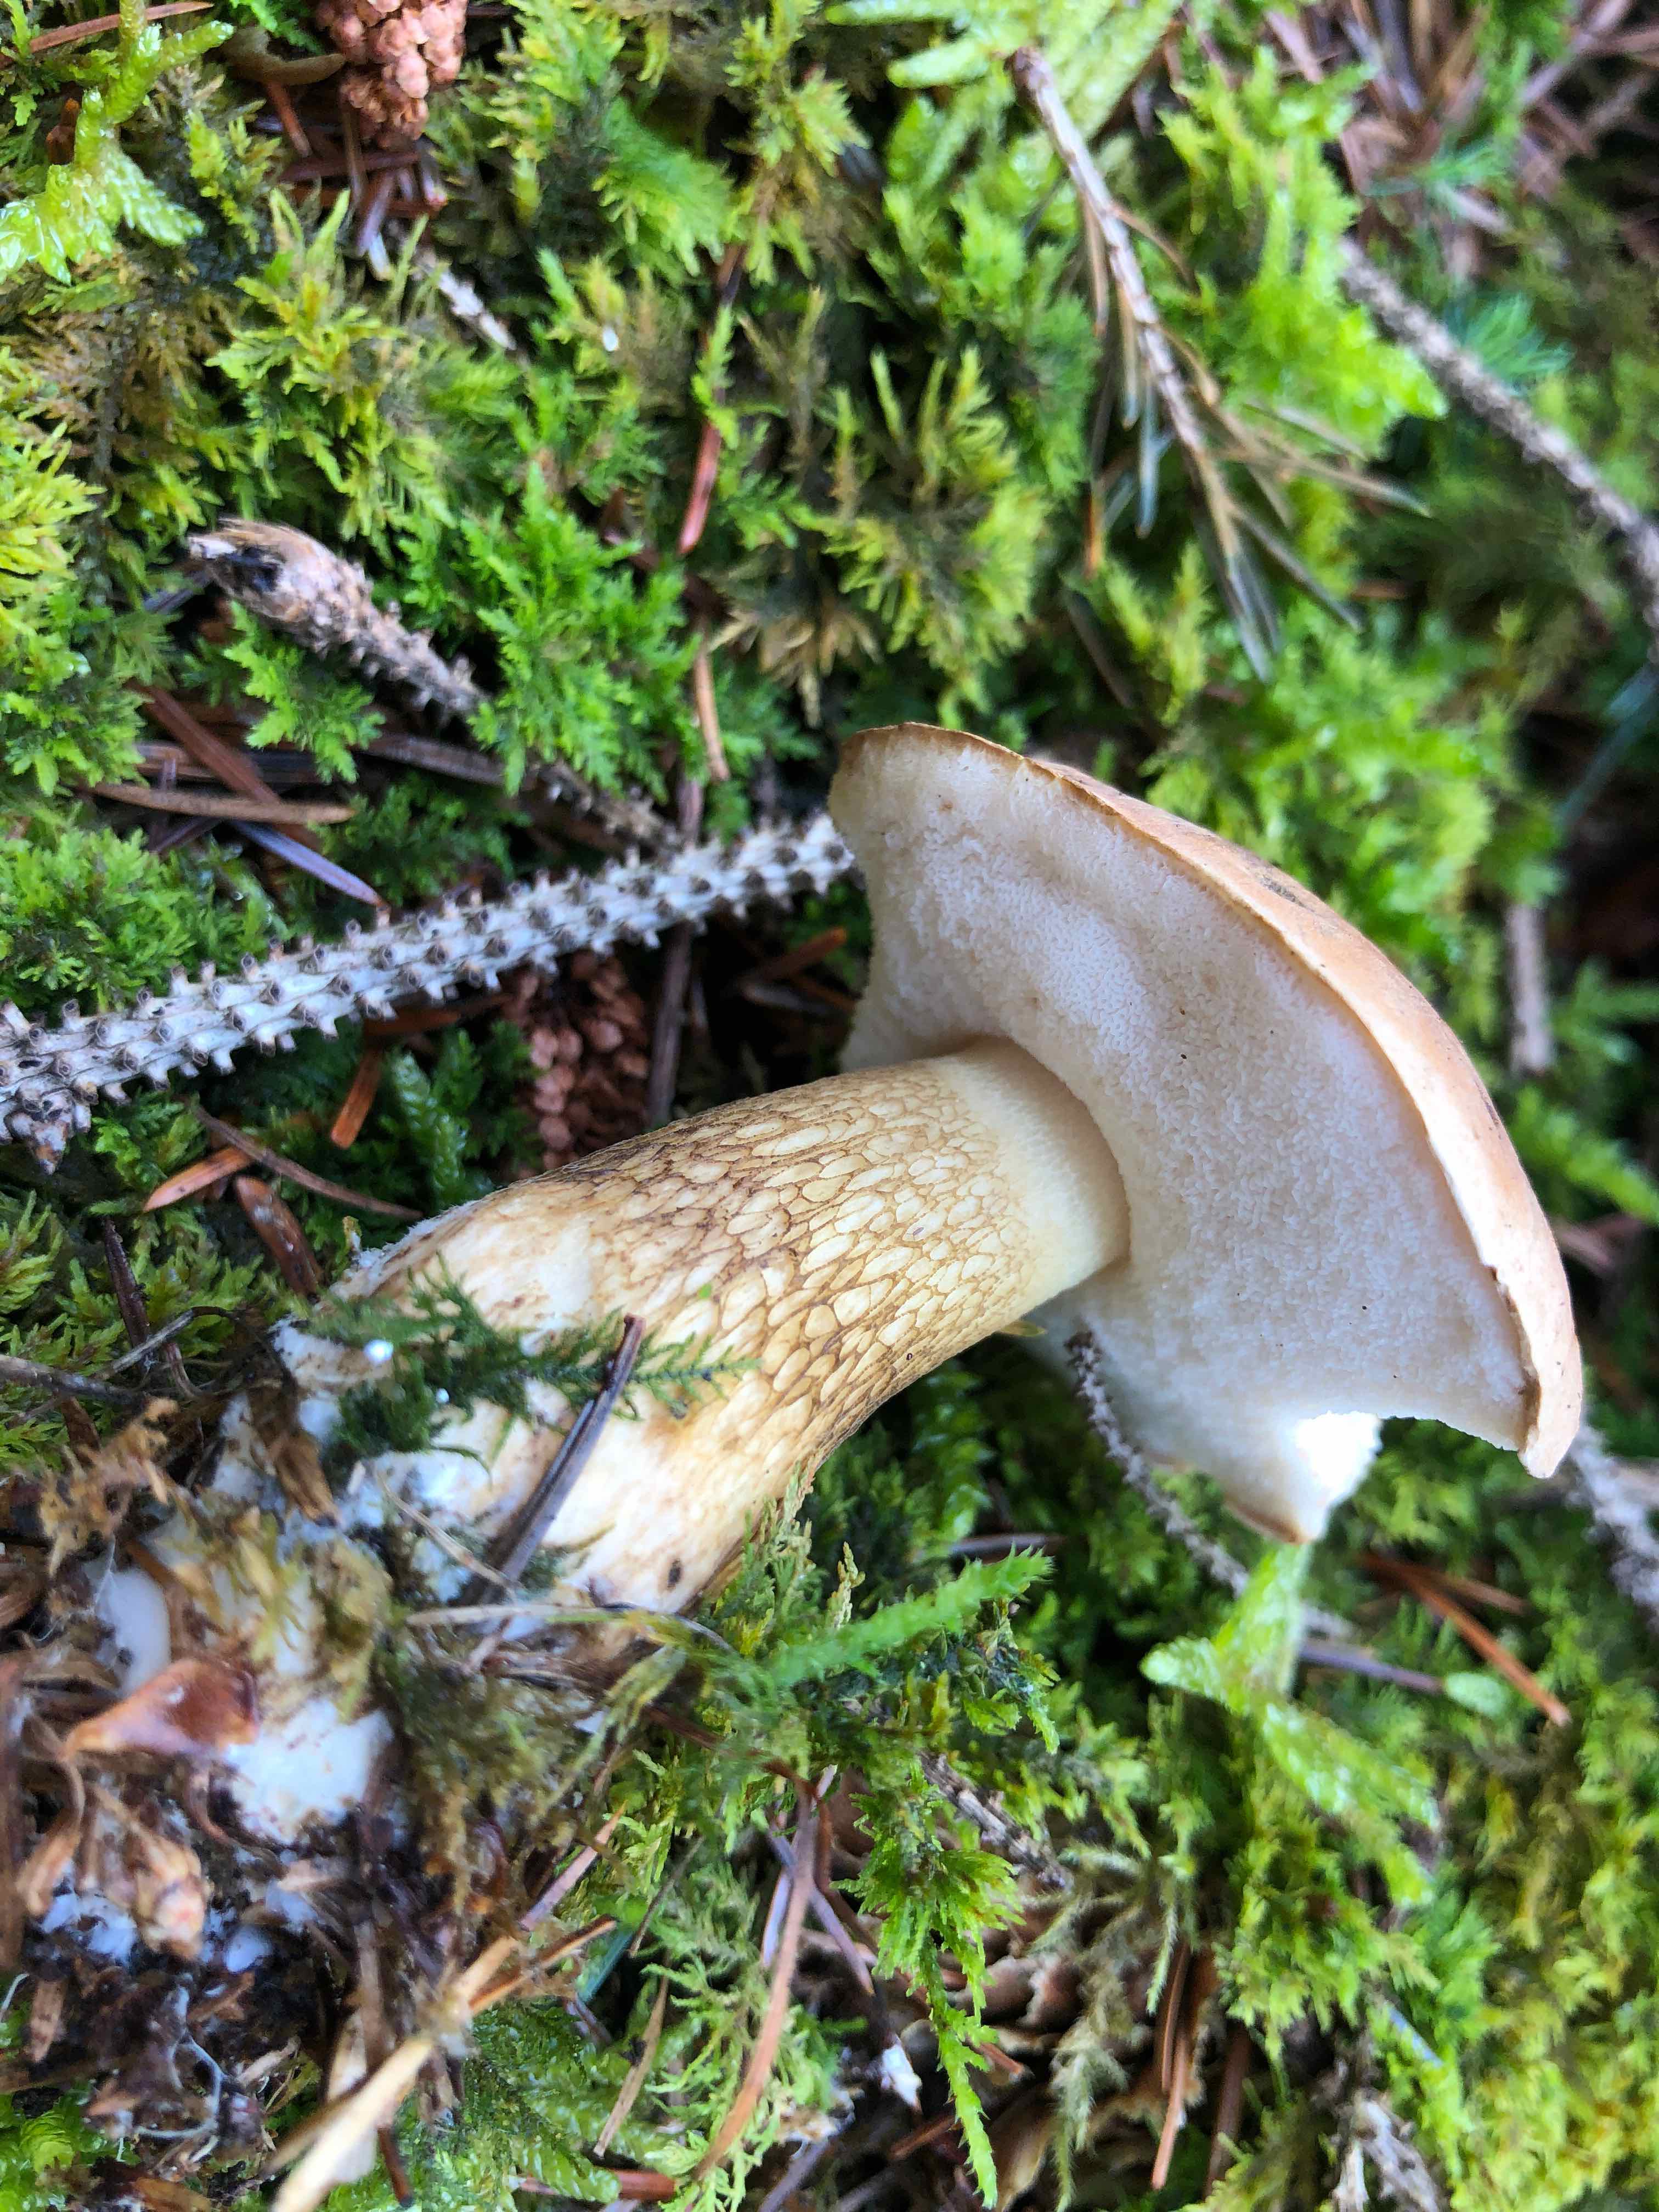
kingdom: Fungi
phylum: Basidiomycota
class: Agaricomycetes
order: Boletales
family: Boletaceae
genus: Tylopilus
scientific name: Tylopilus felleus
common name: galderørhat
